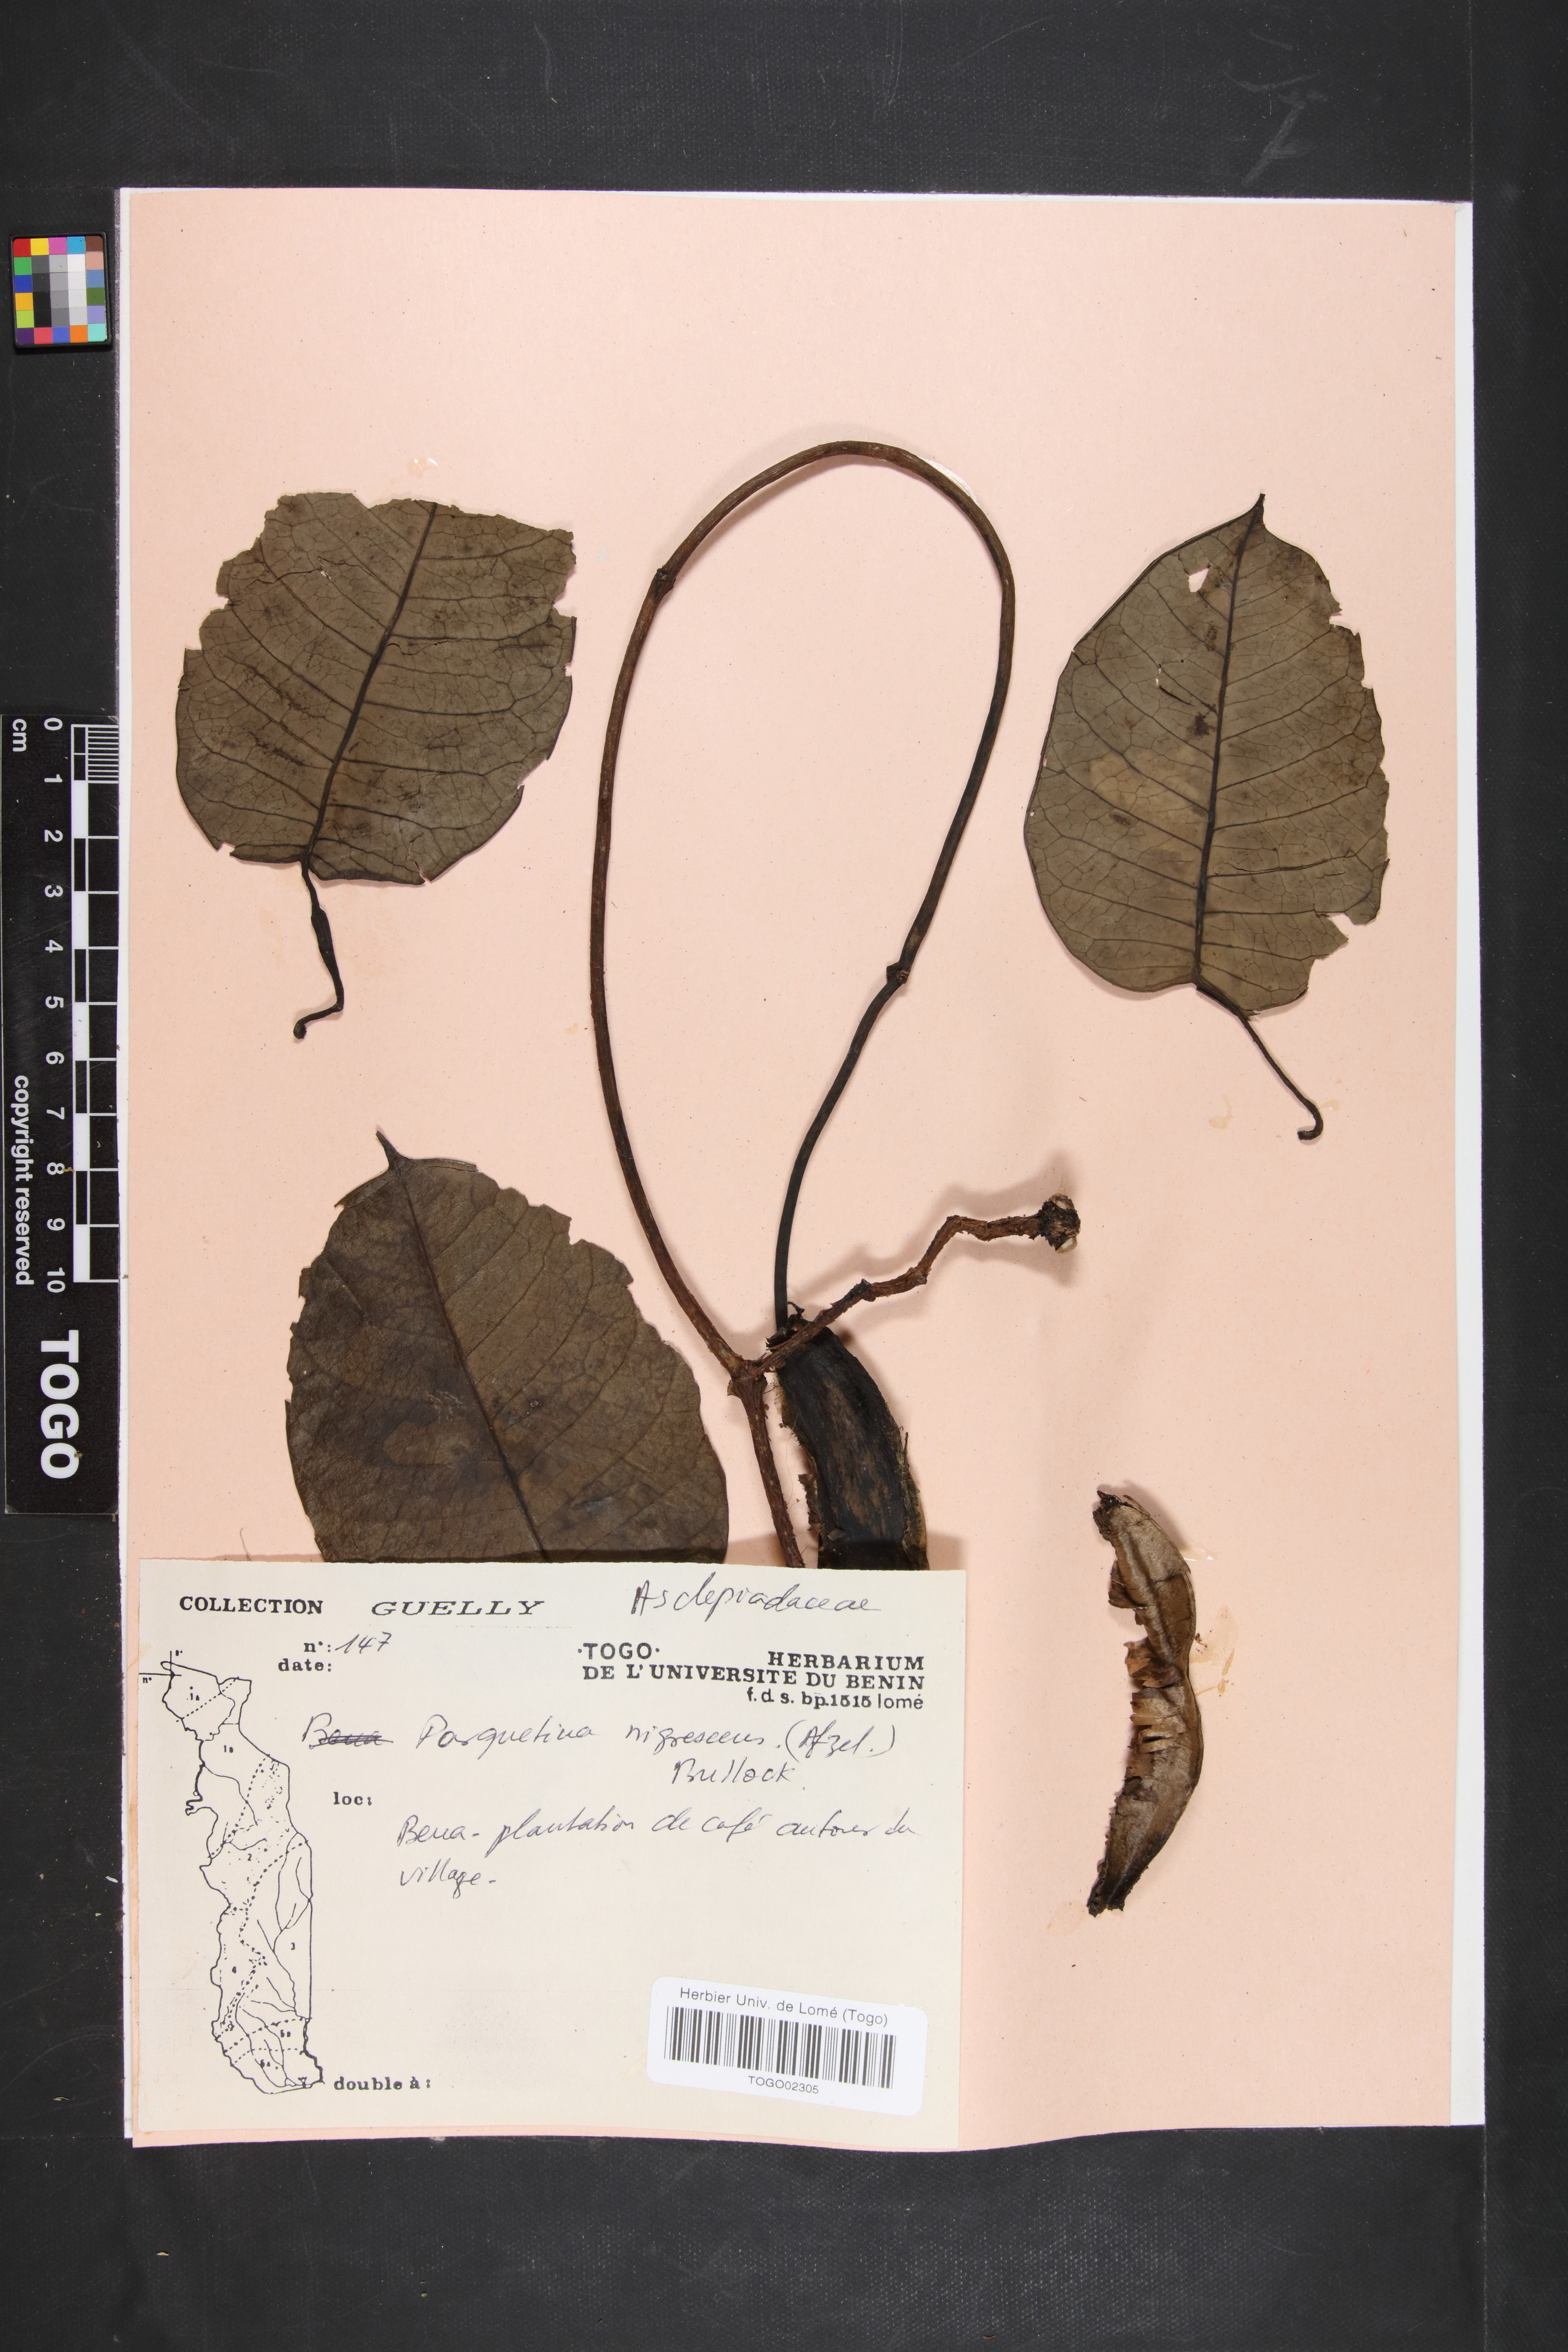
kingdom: Plantae
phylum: Tracheophyta
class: Magnoliopsida
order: Gentianales
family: Apocynaceae
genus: Cryptolepis
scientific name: Cryptolepis nigrescens
